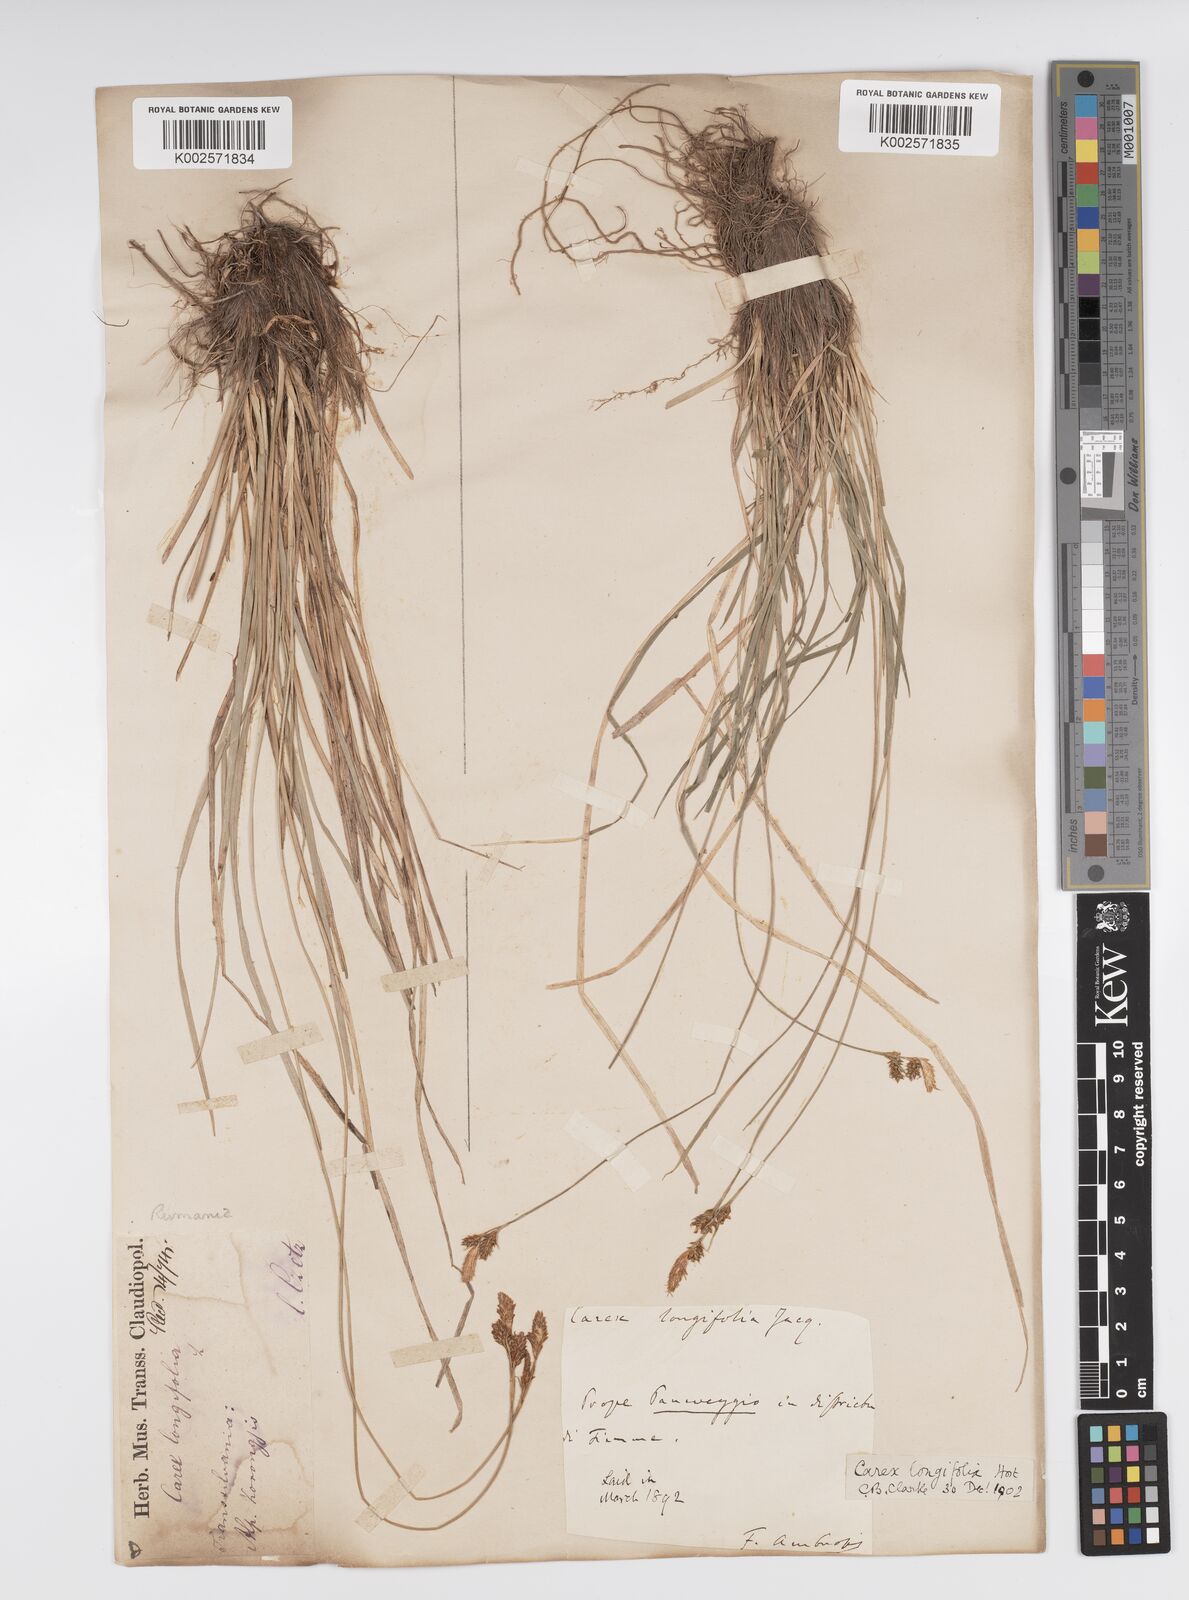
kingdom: Plantae
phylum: Tracheophyta
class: Liliopsida
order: Poales
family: Cyperaceae
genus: Carex
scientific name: Carex umbrosa
